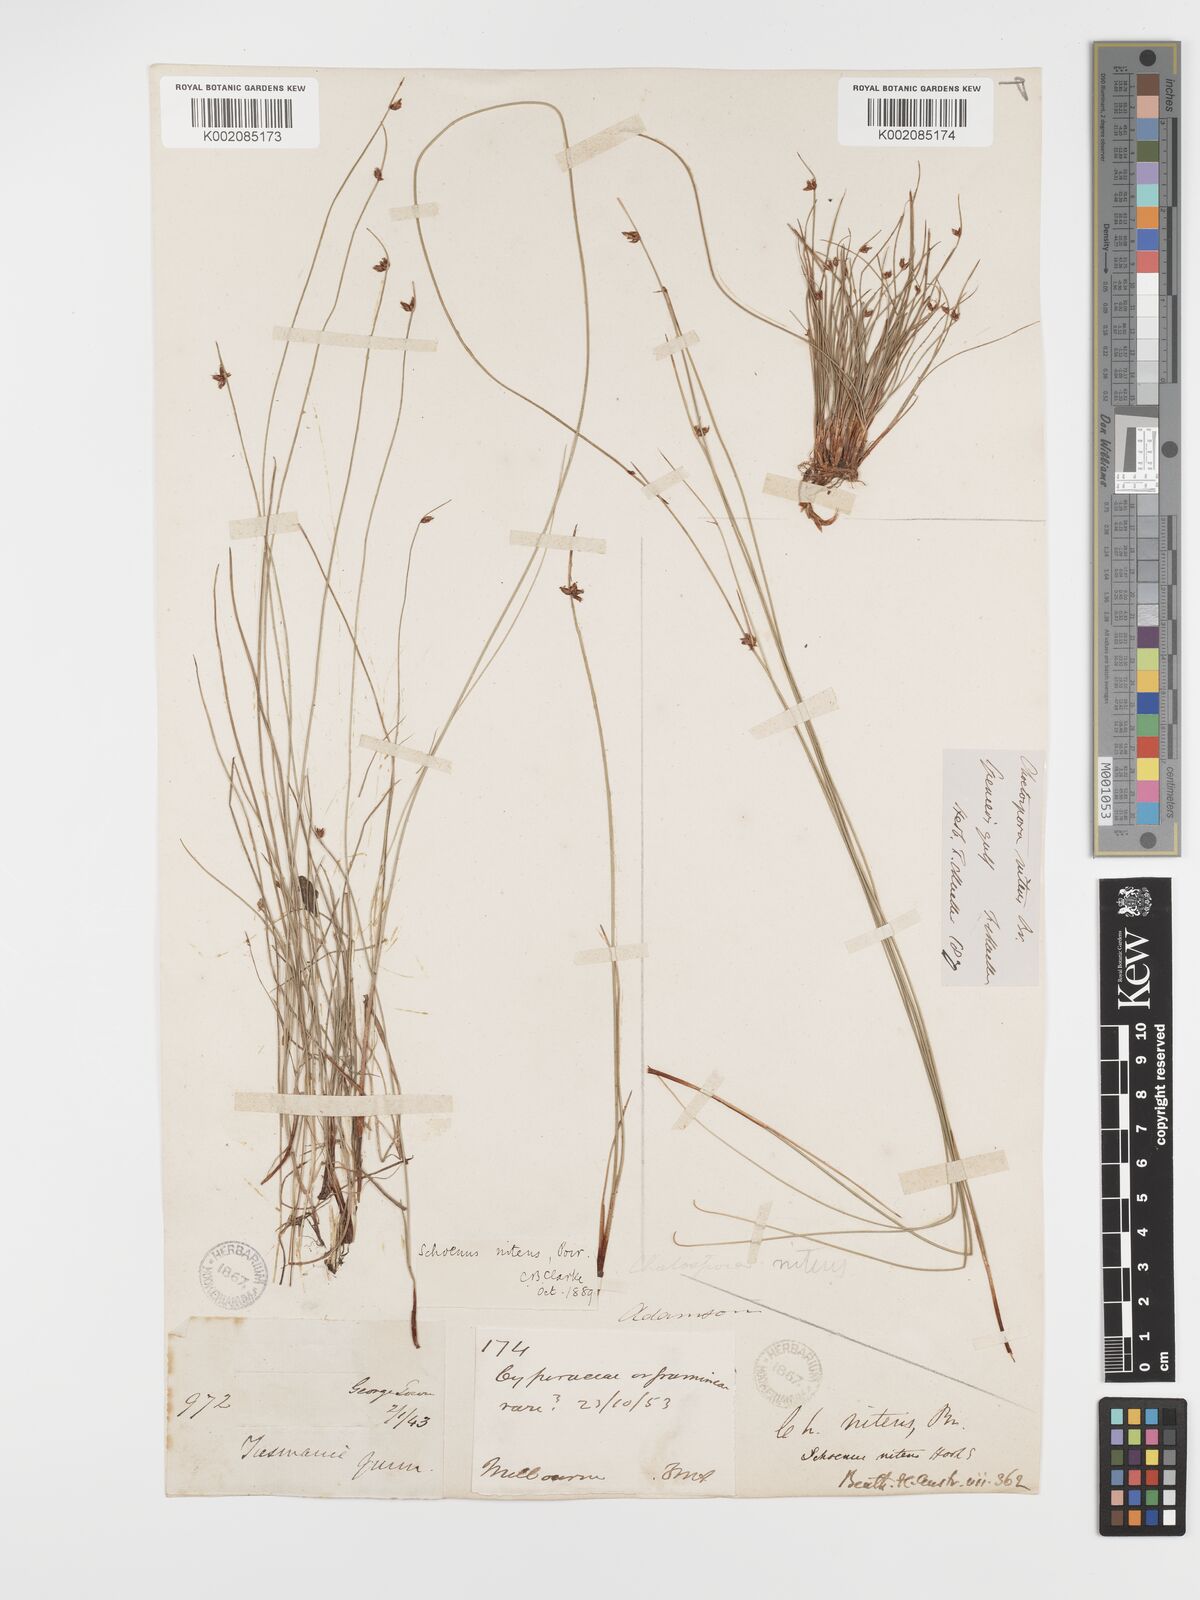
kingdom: Plantae
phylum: Tracheophyta
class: Liliopsida
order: Poales
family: Cyperaceae
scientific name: Cyperaceae
